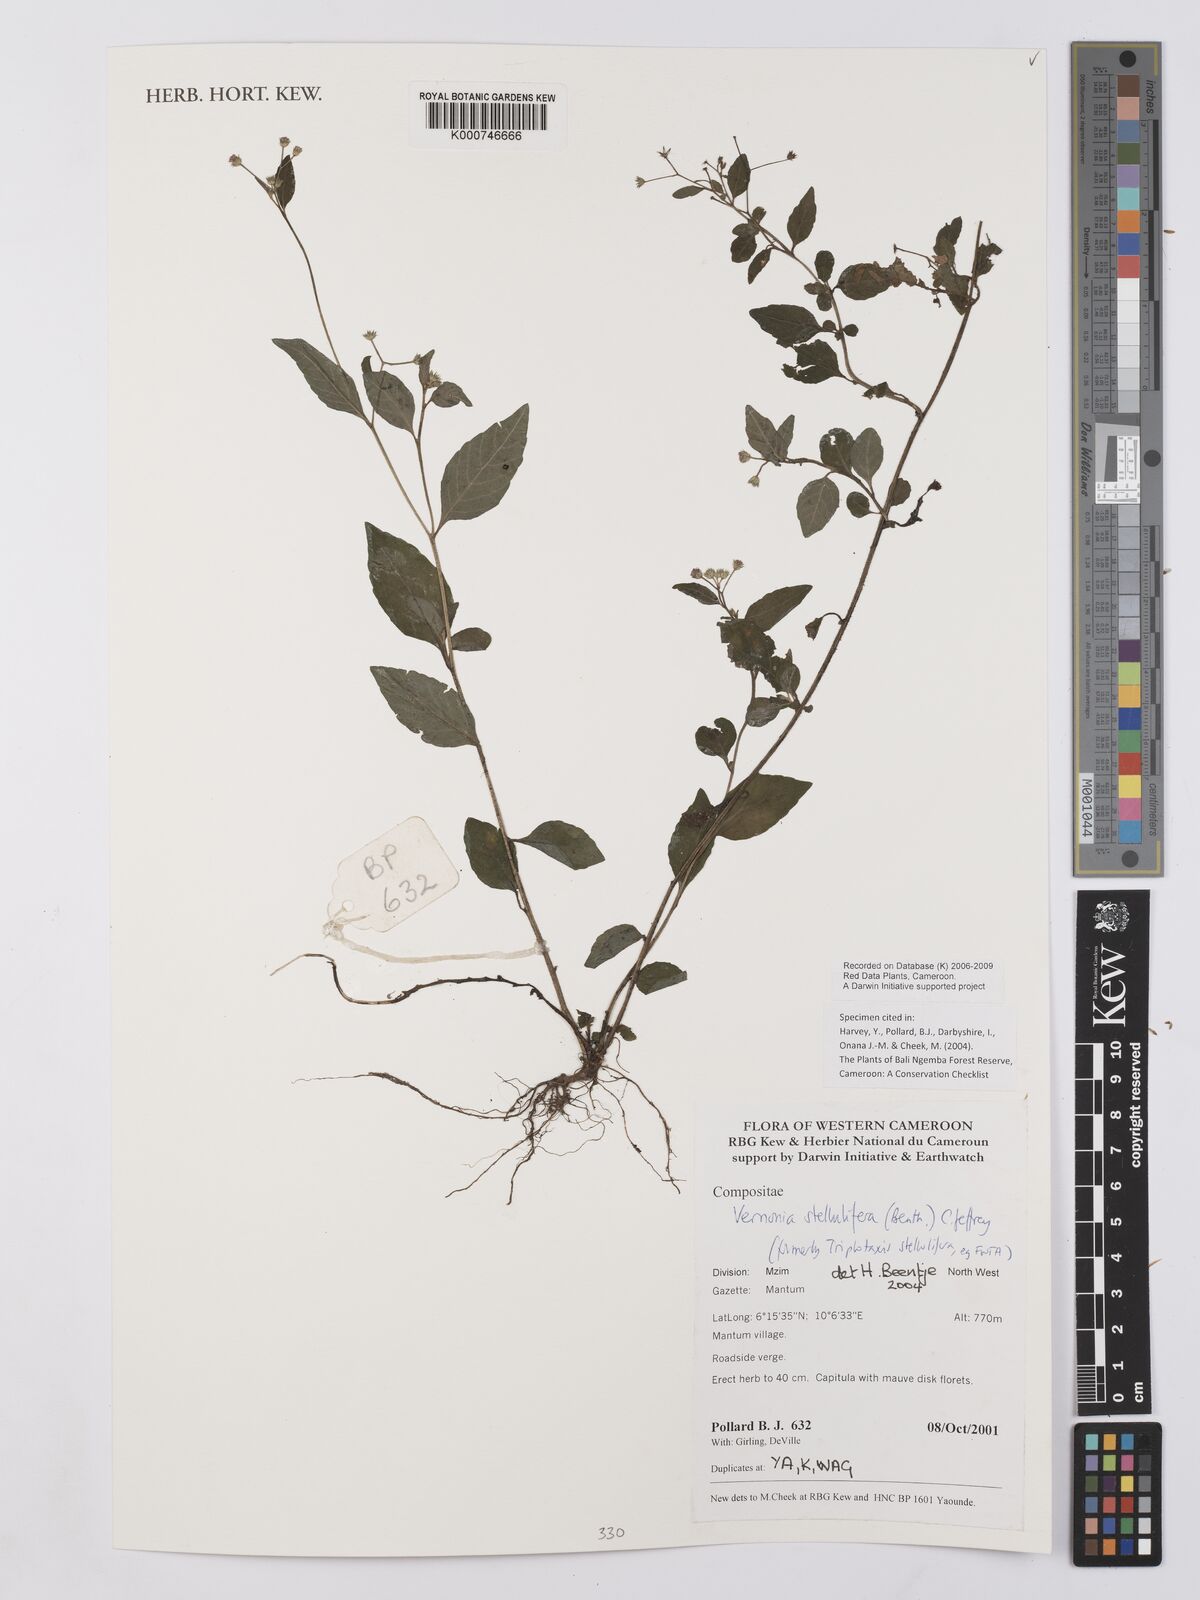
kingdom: Plantae
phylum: Tracheophyta
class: Magnoliopsida
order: Asterales
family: Asteraceae
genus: Cyanthillium
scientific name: Cyanthillium stelluliferum
